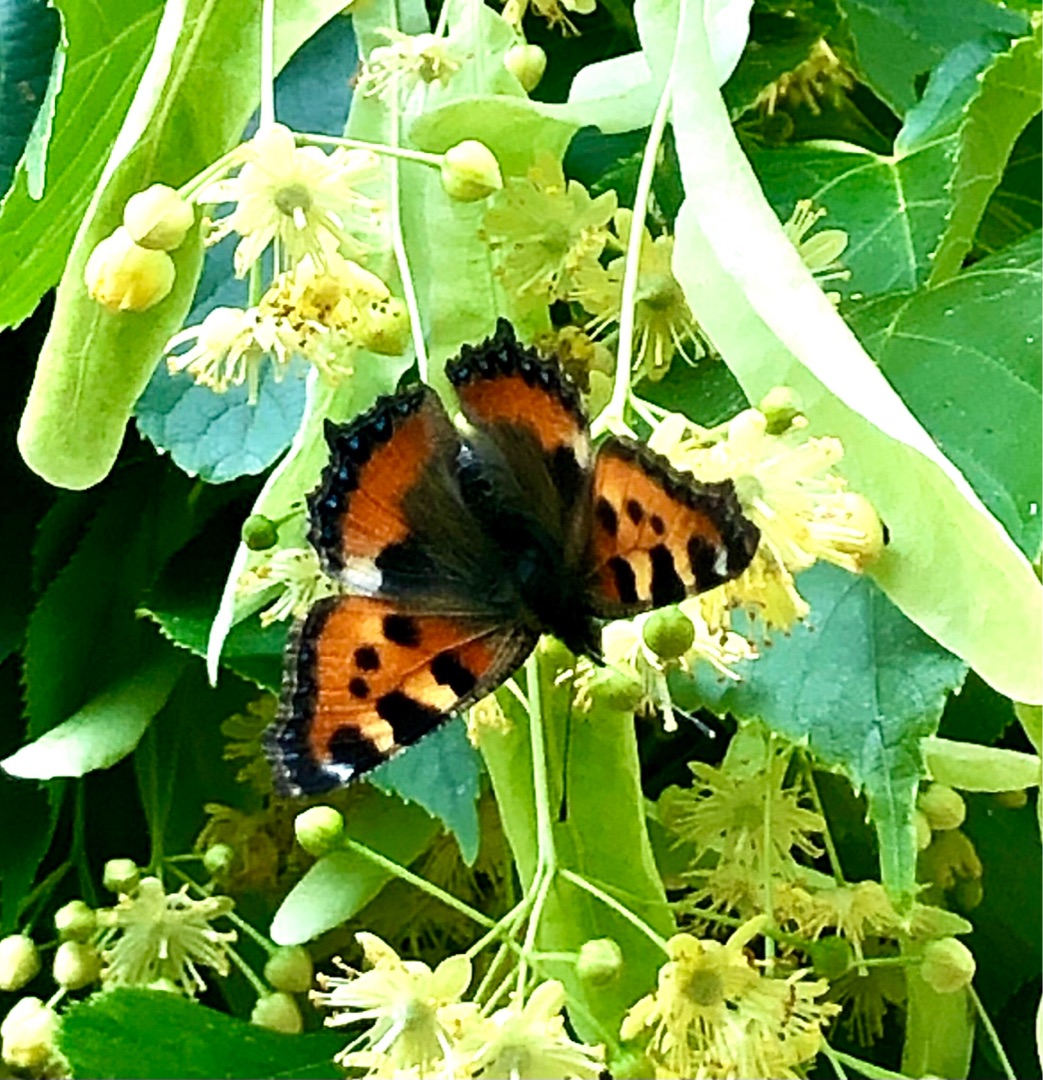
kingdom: Animalia
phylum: Arthropoda
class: Insecta
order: Lepidoptera
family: Nymphalidae
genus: Aglais
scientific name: Aglais urticae
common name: Nældens takvinge
